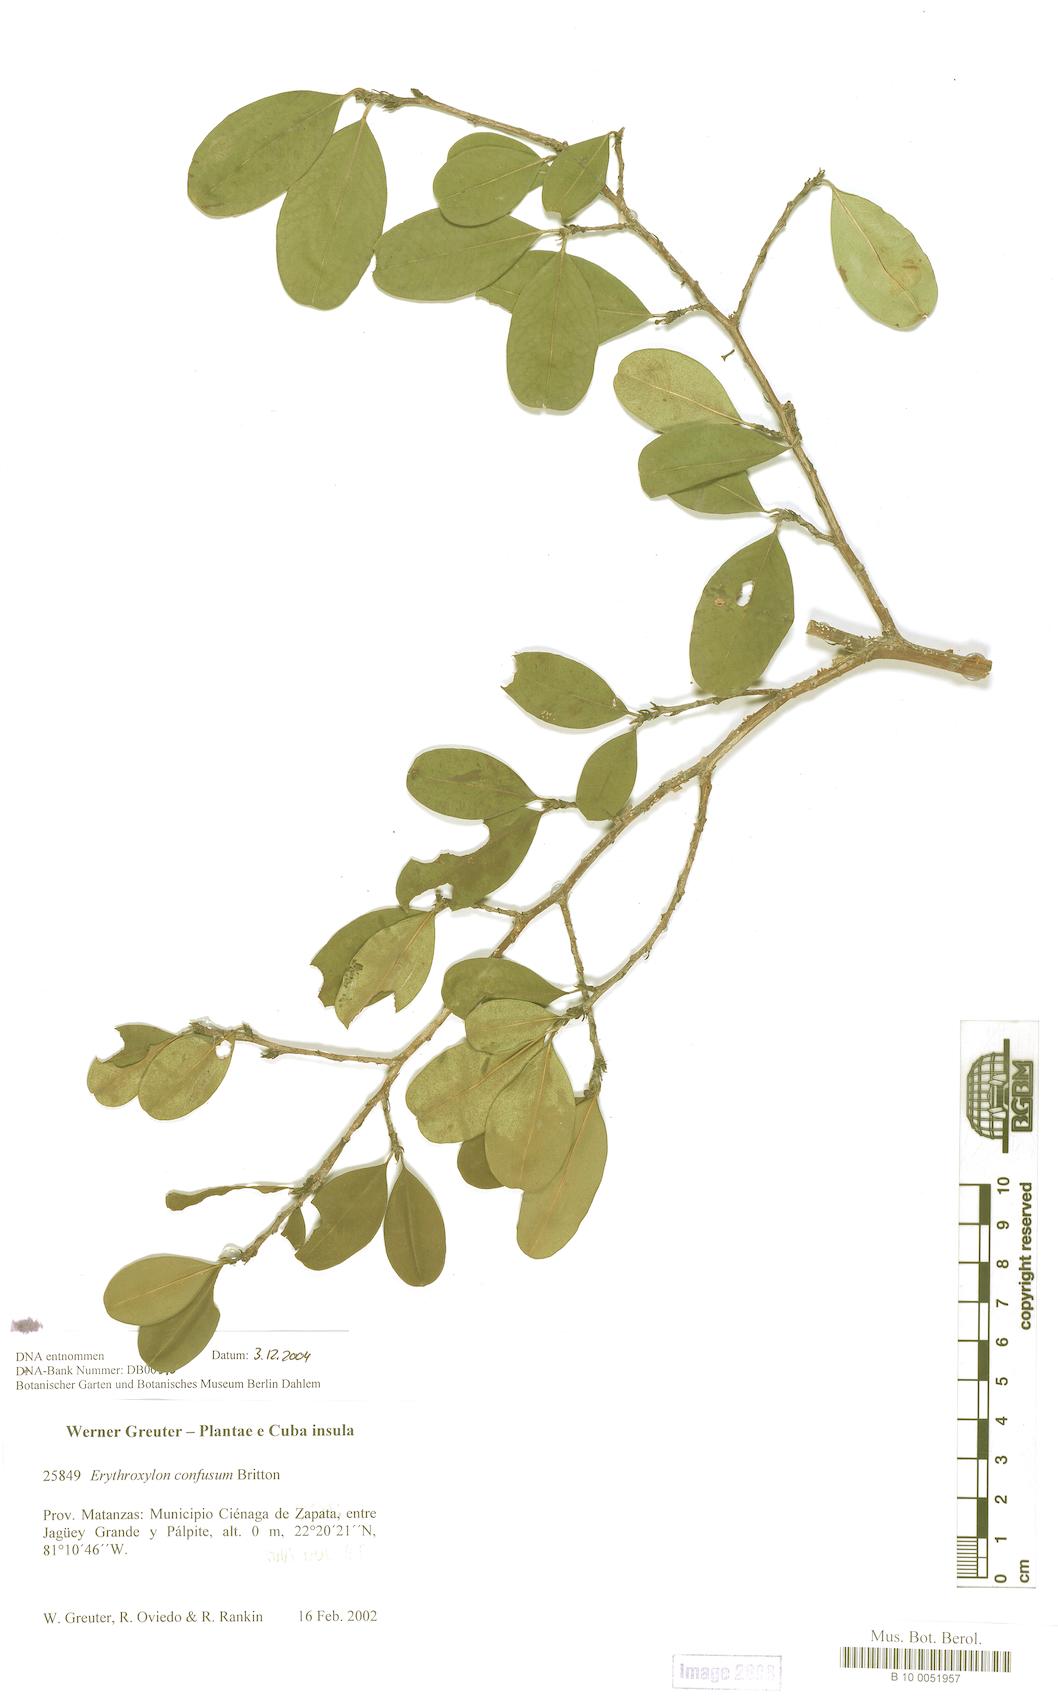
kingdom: Plantae
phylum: Tracheophyta
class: Magnoliopsida
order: Malpighiales
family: Erythroxylaceae
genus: Erythroxylum
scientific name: Erythroxylum confusum
